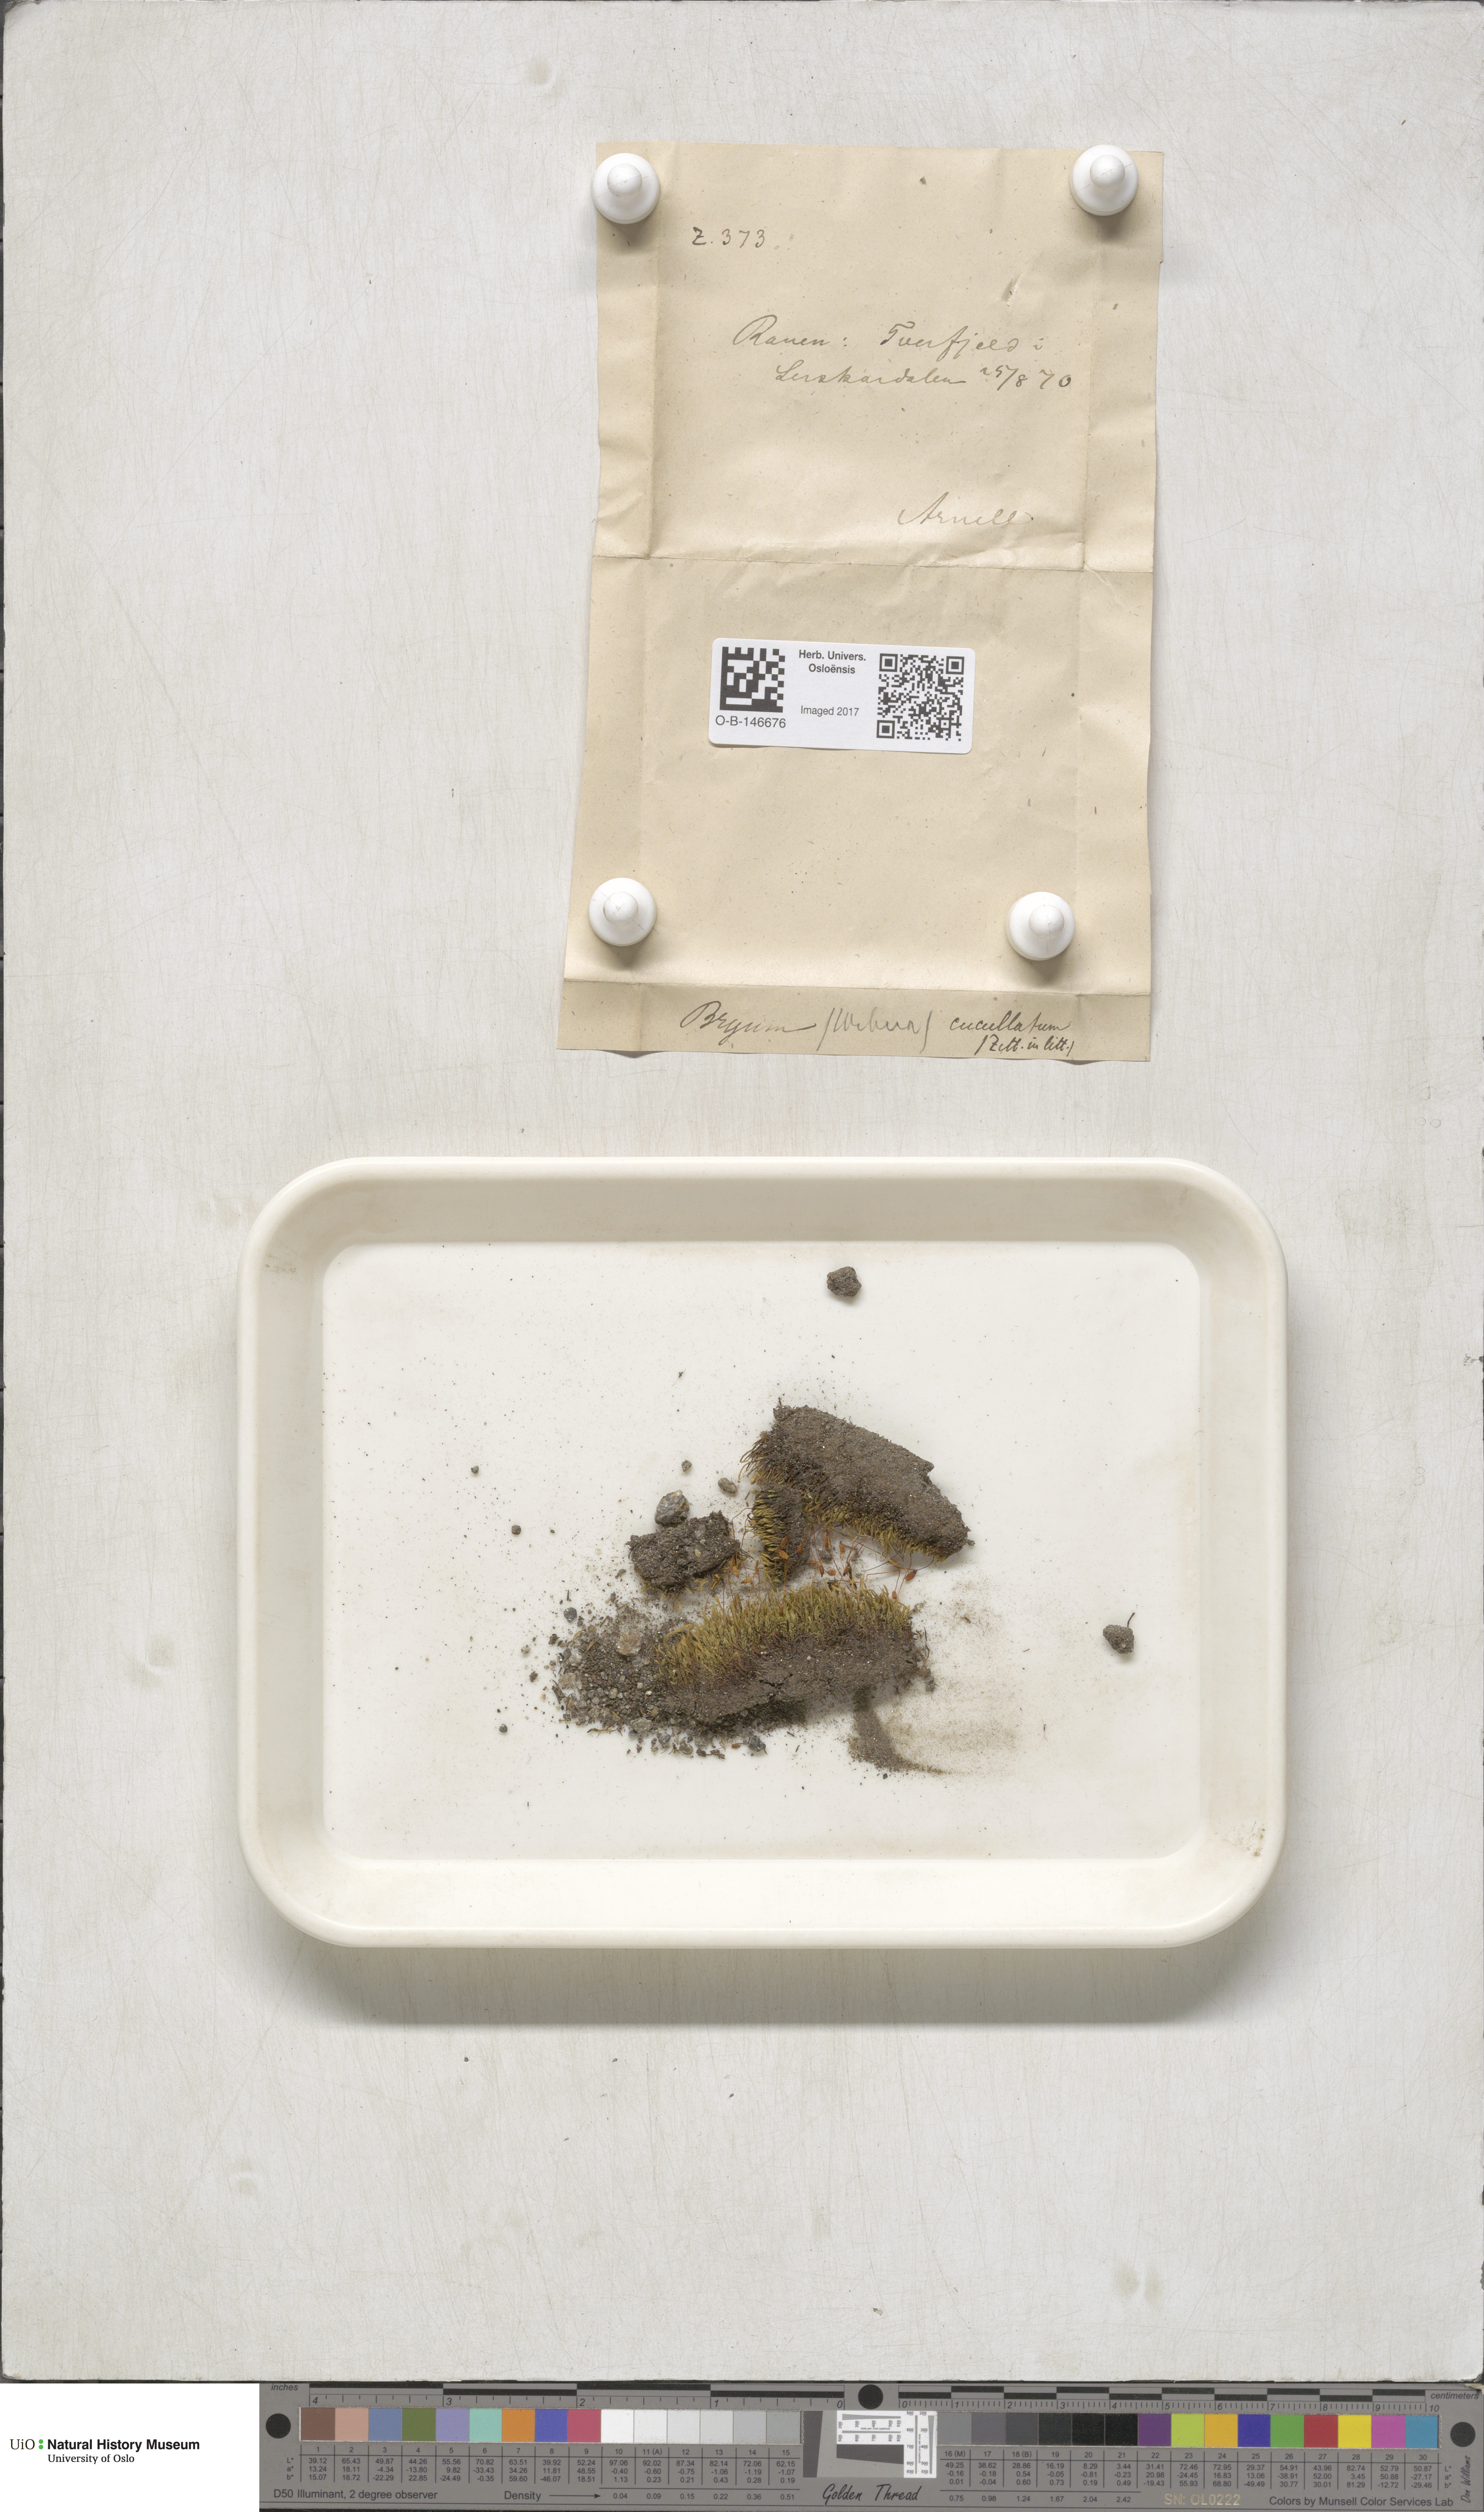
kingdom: Plantae
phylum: Bryophyta
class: Bryopsida
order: Bryales
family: Mniaceae
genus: Pohlia
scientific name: Pohlia obtusifolia
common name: Blunt nodding moss
